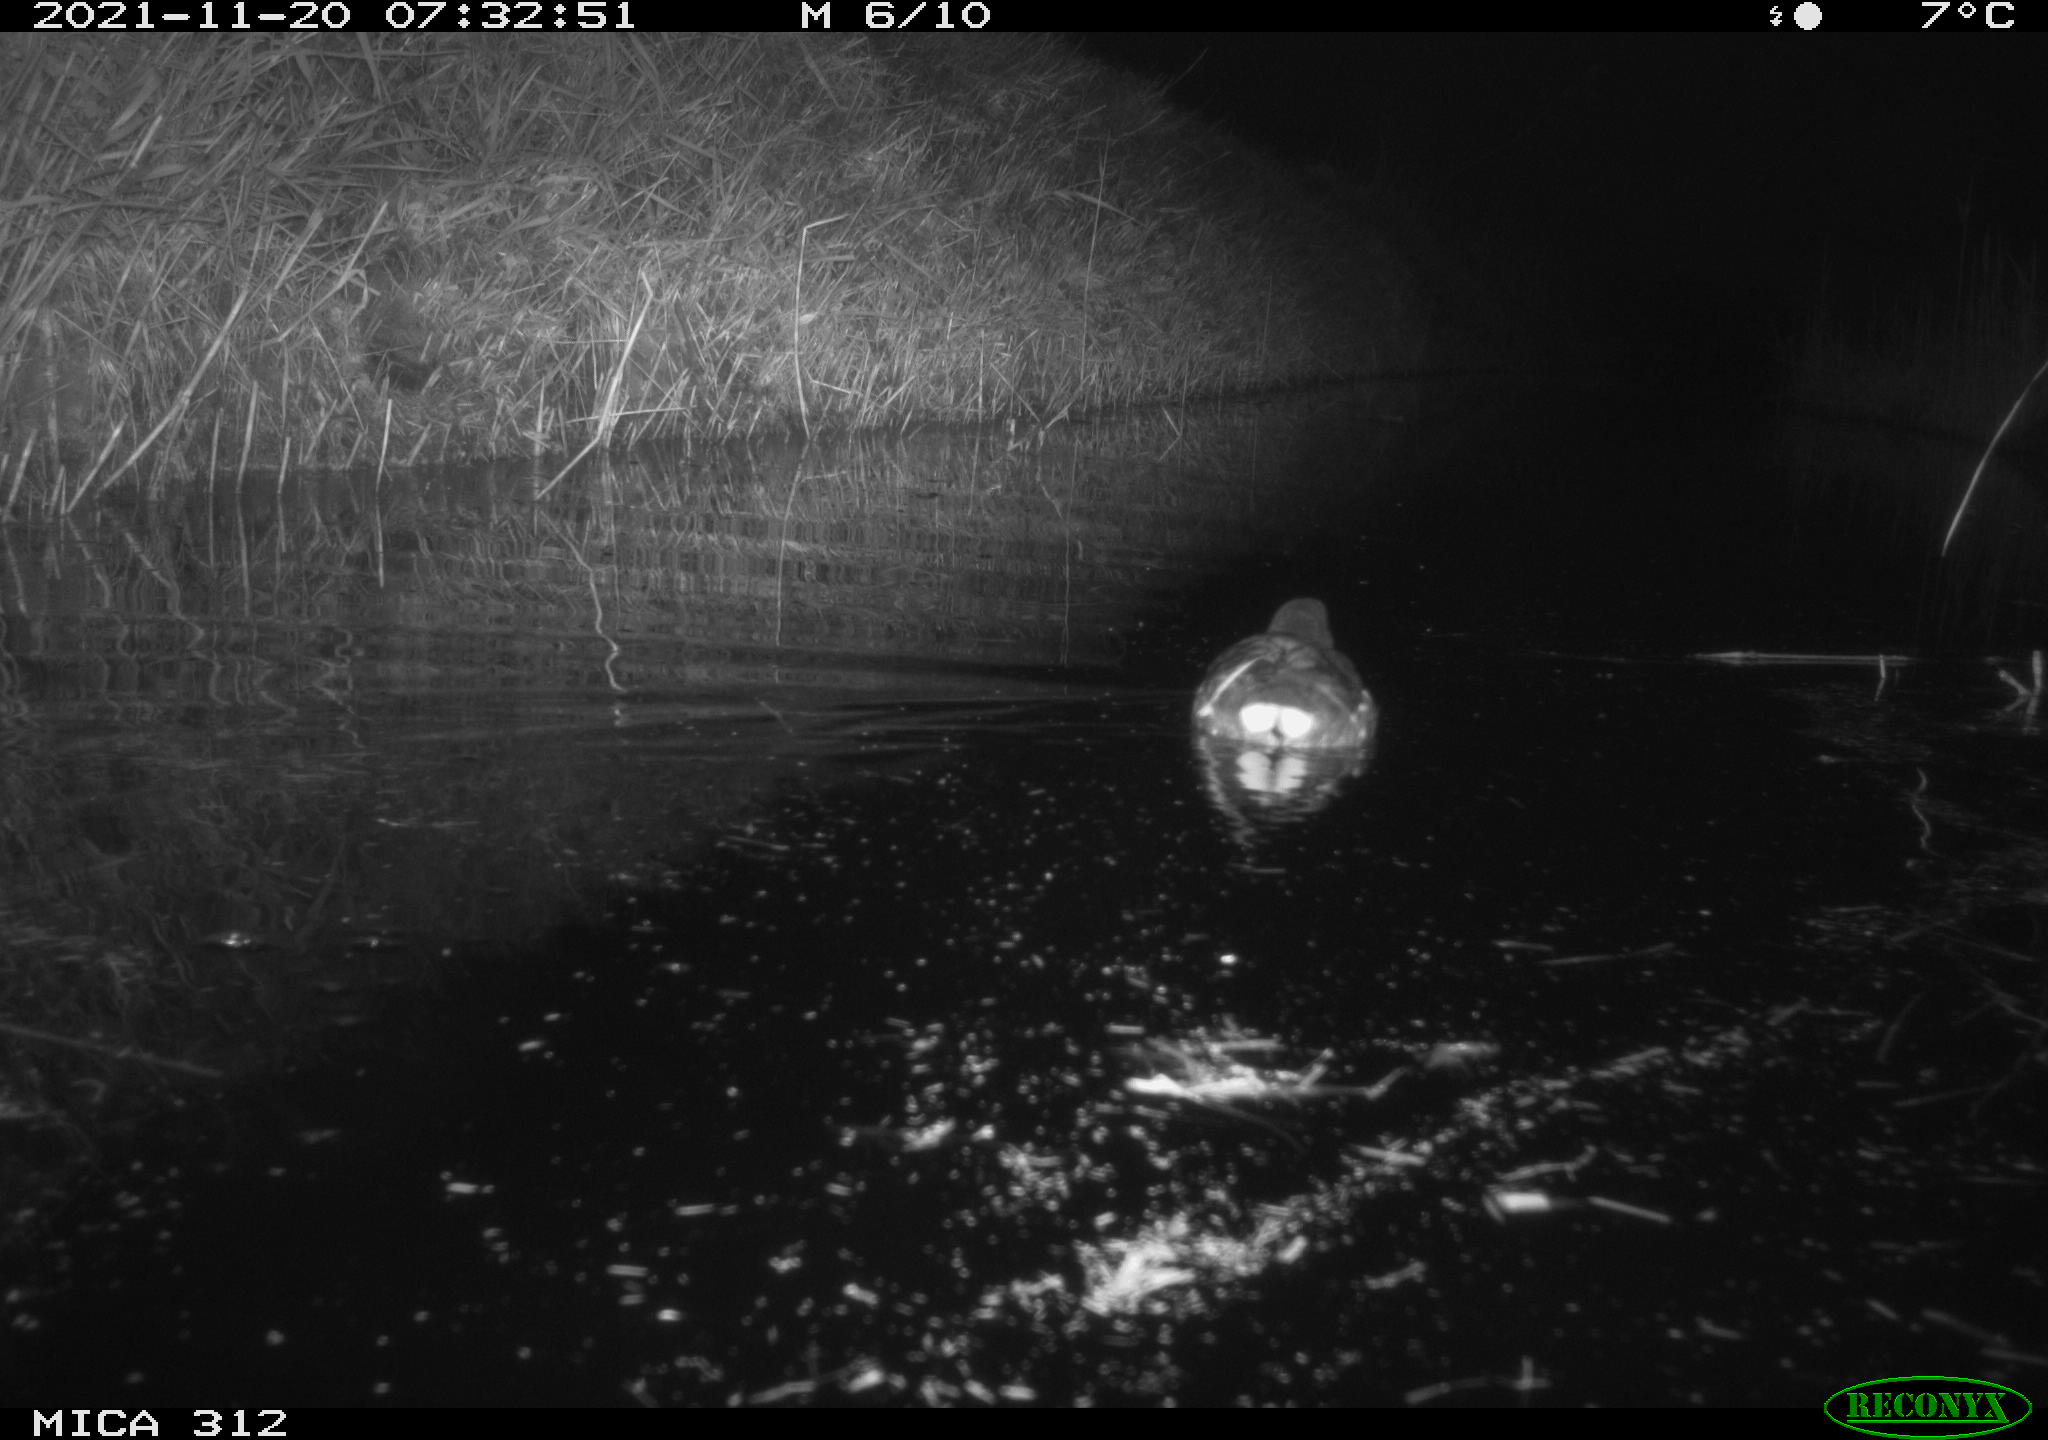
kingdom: Animalia
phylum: Chordata
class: Aves
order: Anseriformes
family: Anatidae
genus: Anas
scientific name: Anas
